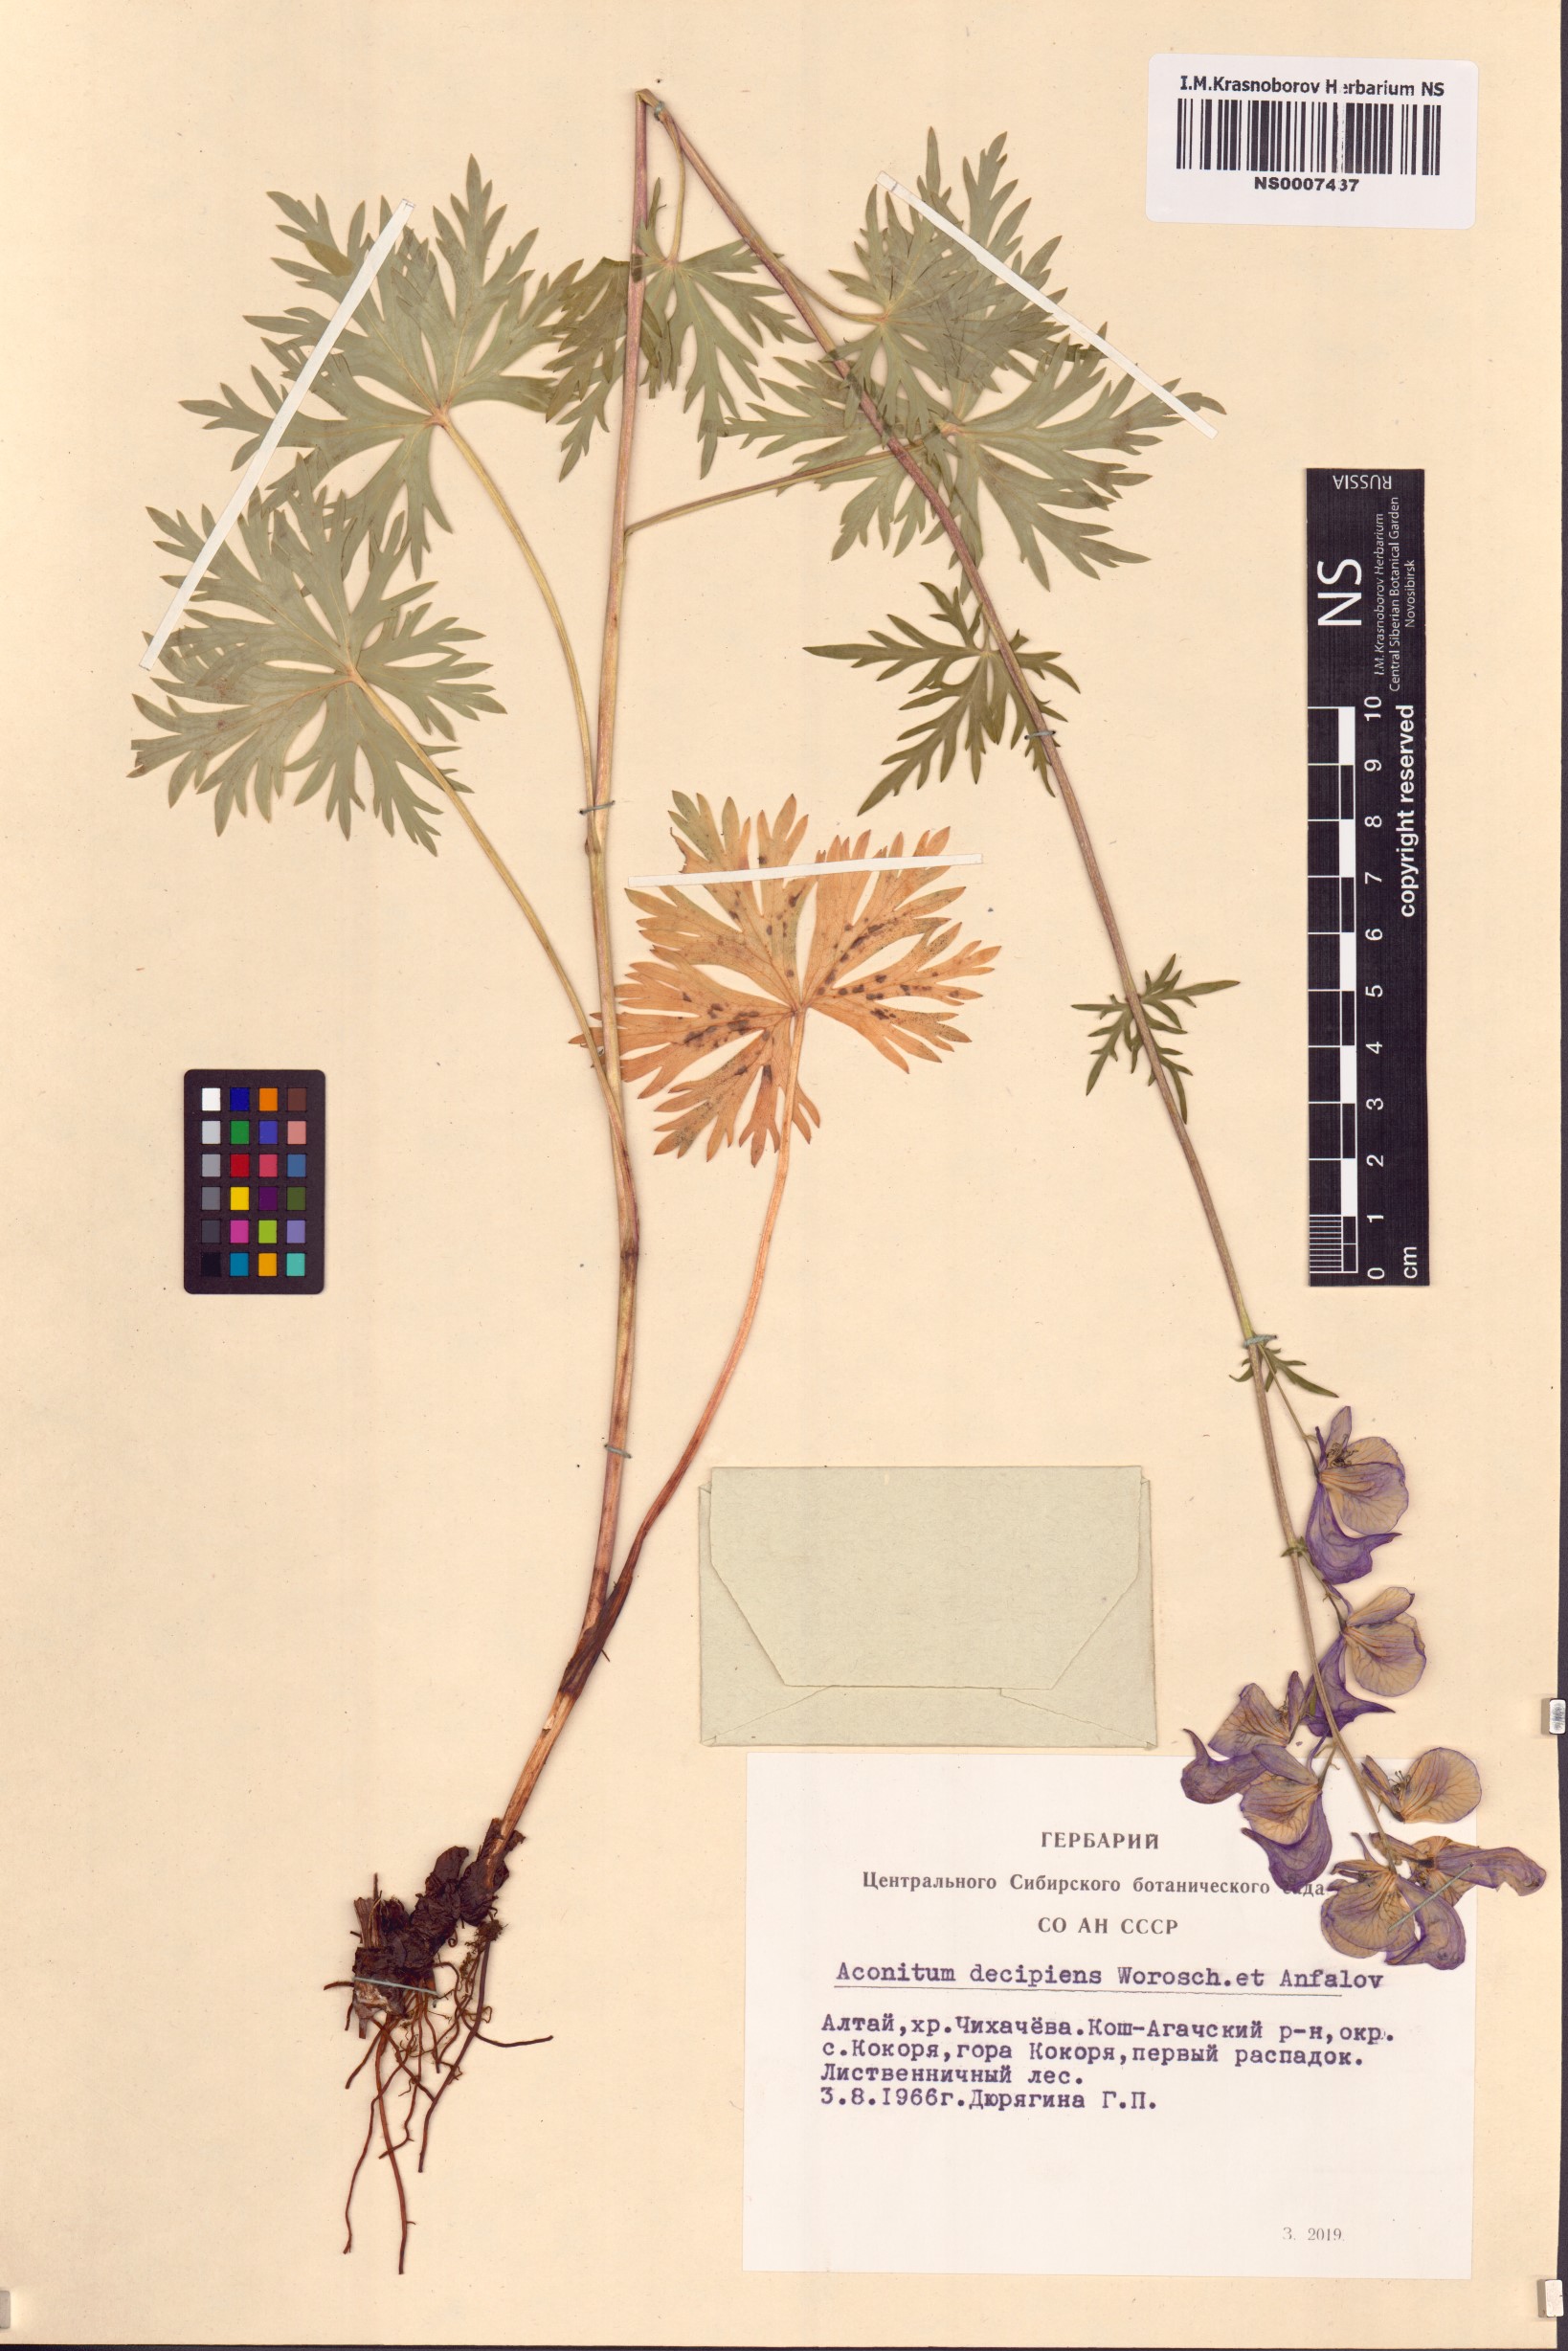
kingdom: Plantae
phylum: Tracheophyta
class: Magnoliopsida
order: Ranunculales
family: Ranunculaceae
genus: Aconitum
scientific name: Aconitum decipiens
